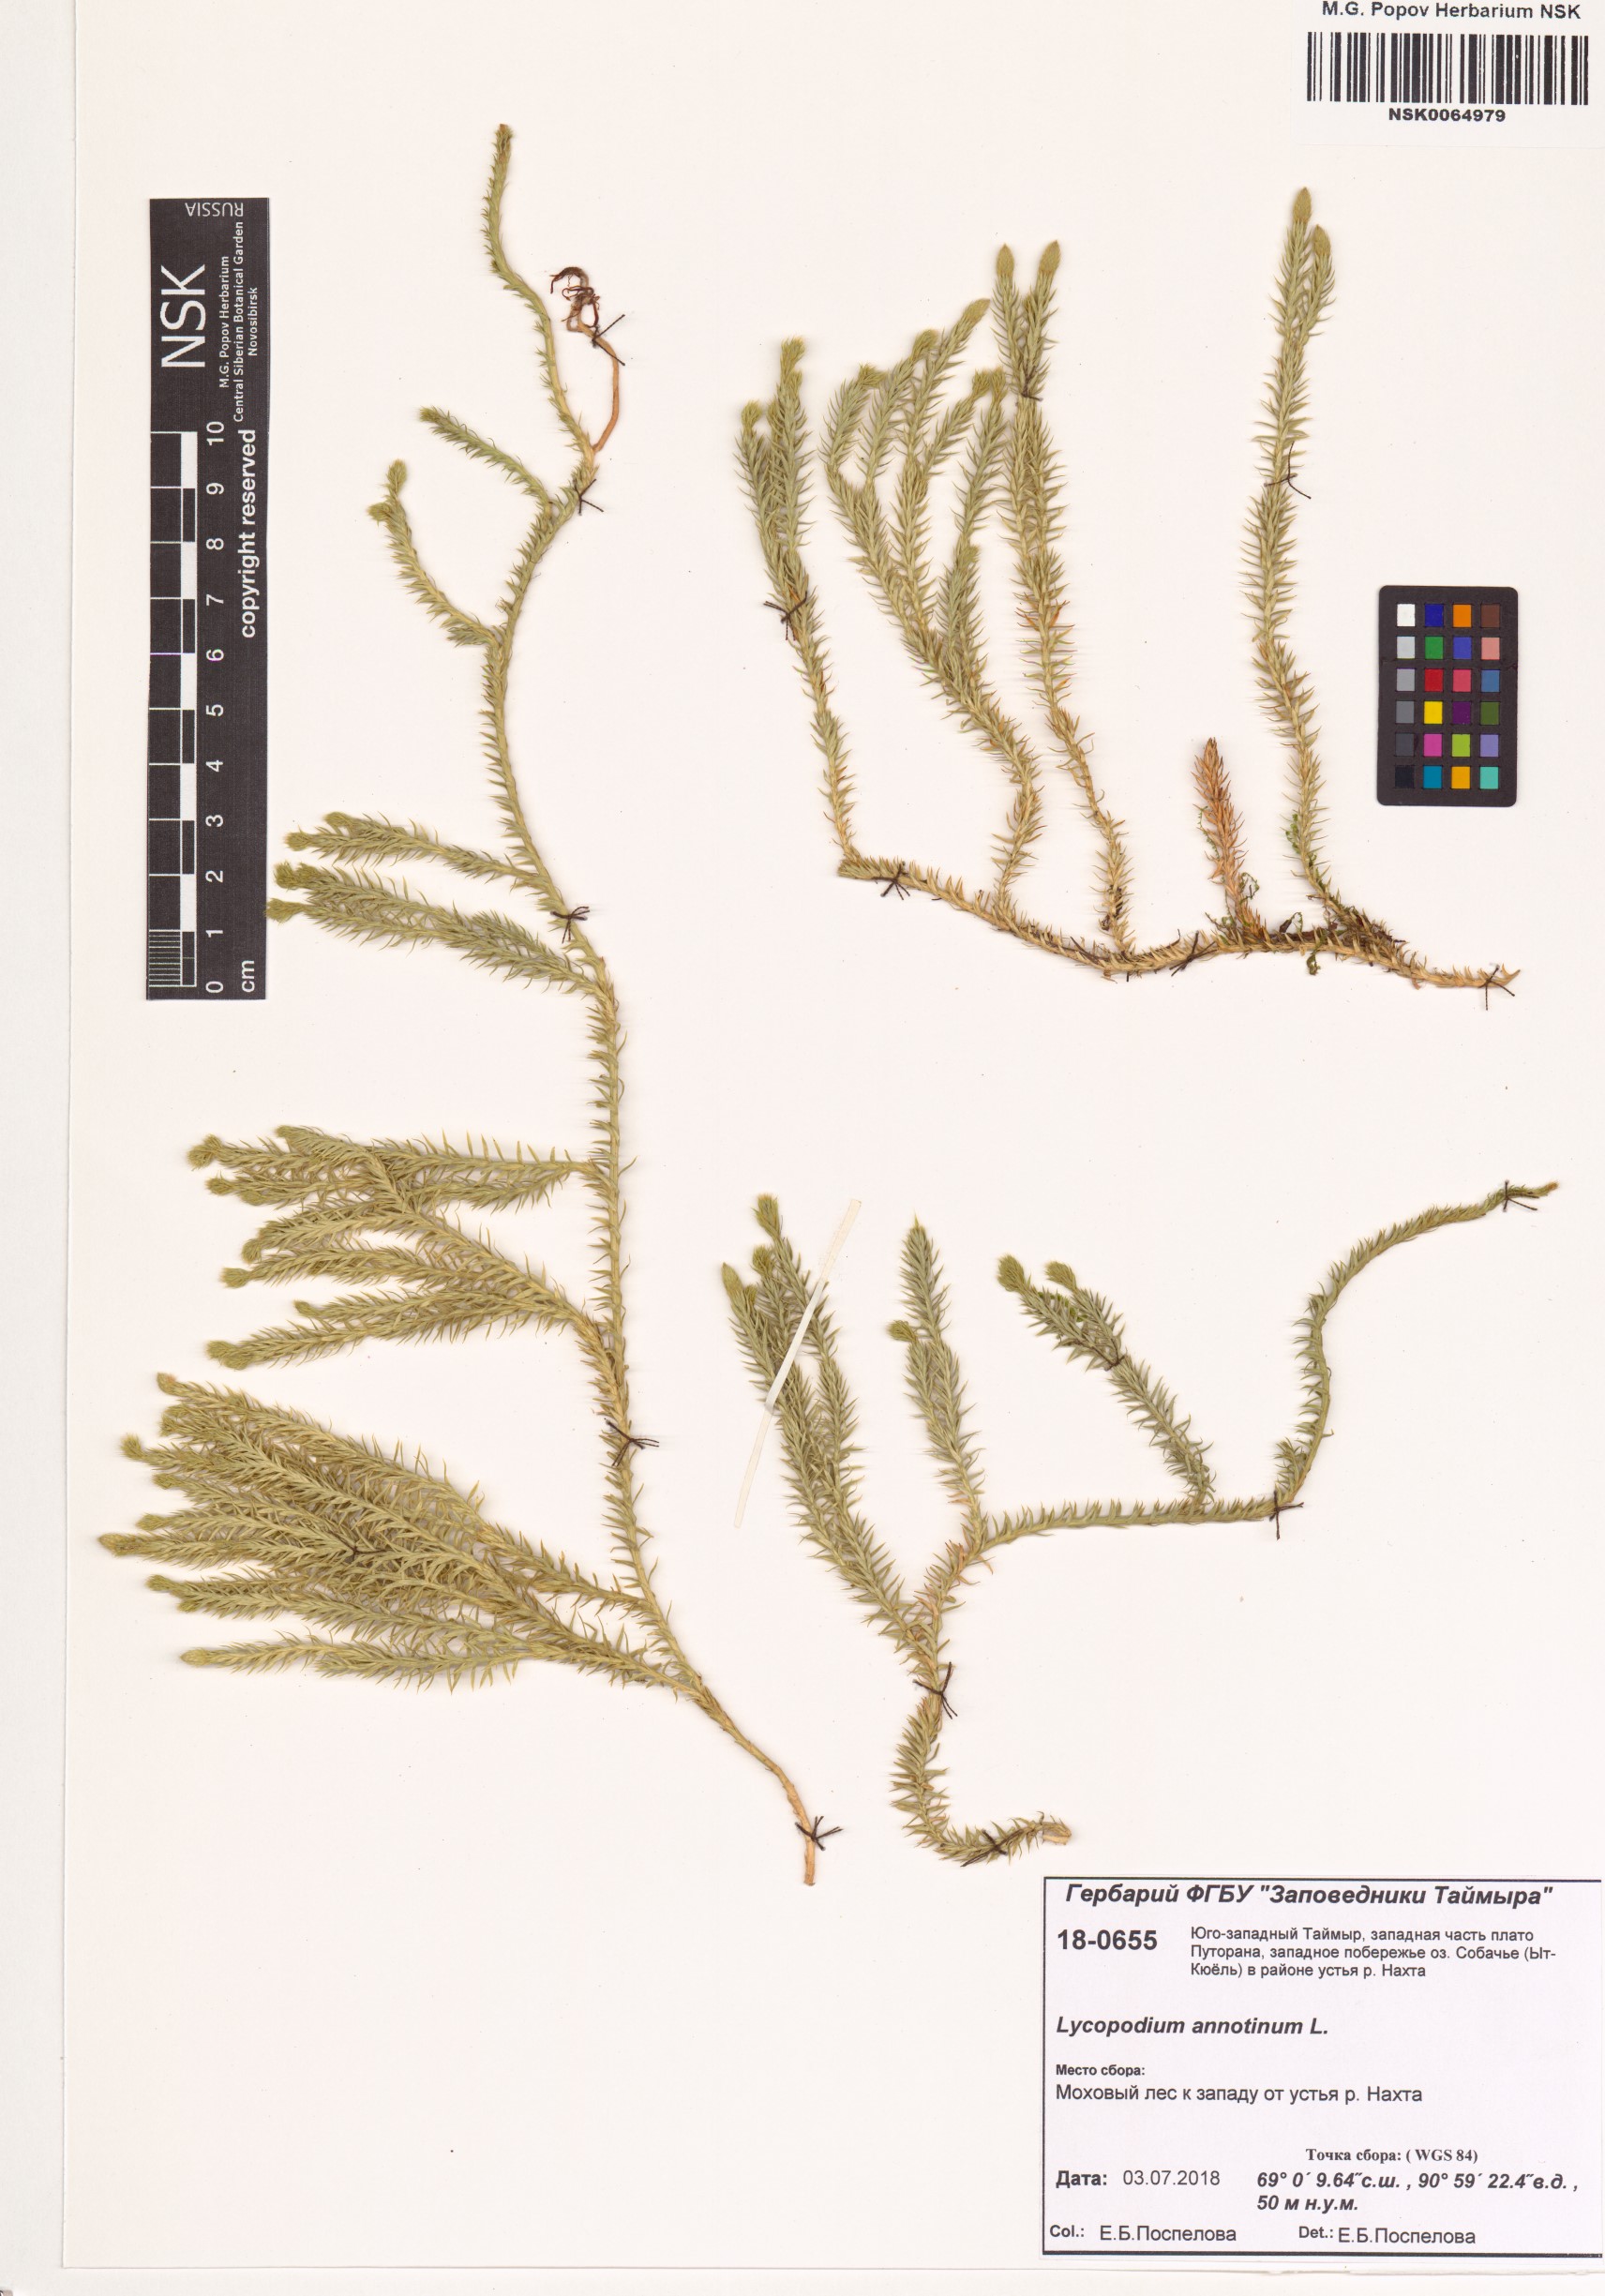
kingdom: Plantae
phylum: Tracheophyta
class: Lycopodiopsida
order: Lycopodiales
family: Lycopodiaceae
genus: Spinulum
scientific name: Spinulum annotinum
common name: Interrupted club-moss
